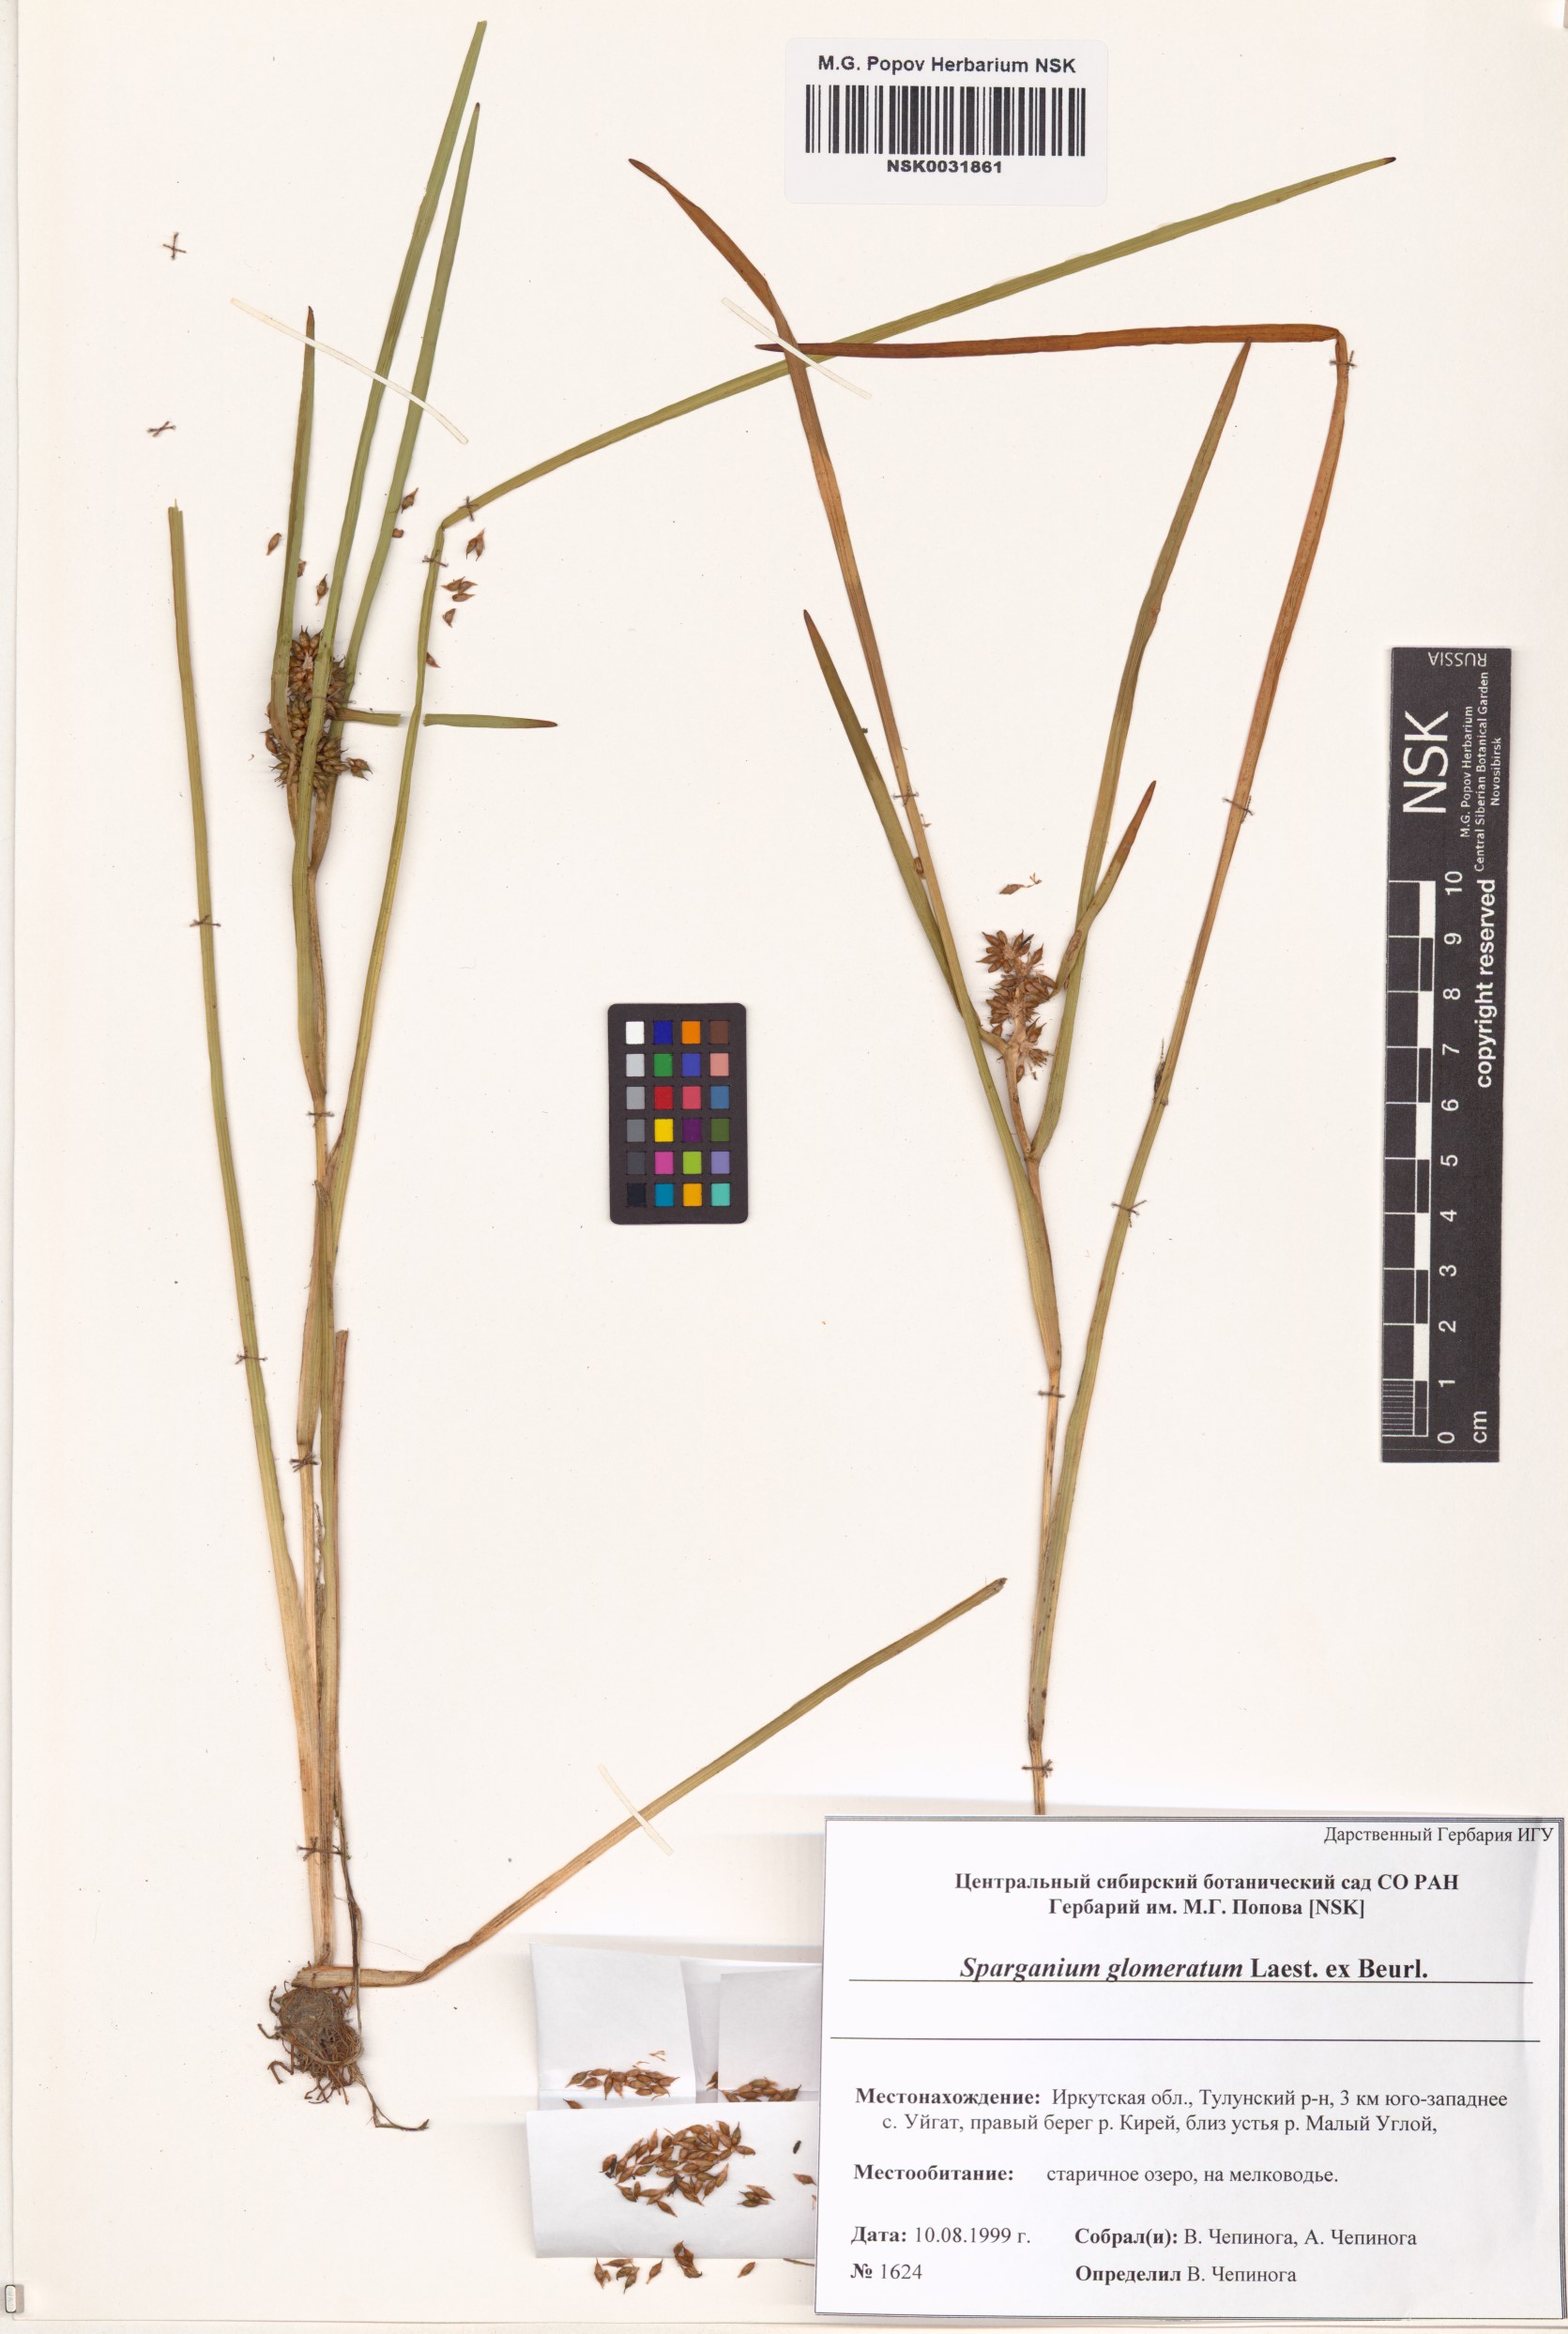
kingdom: Plantae
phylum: Tracheophyta
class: Liliopsida
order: Poales
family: Typhaceae
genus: Sparganium
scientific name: Sparganium glomeratum
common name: Clustered burreed
